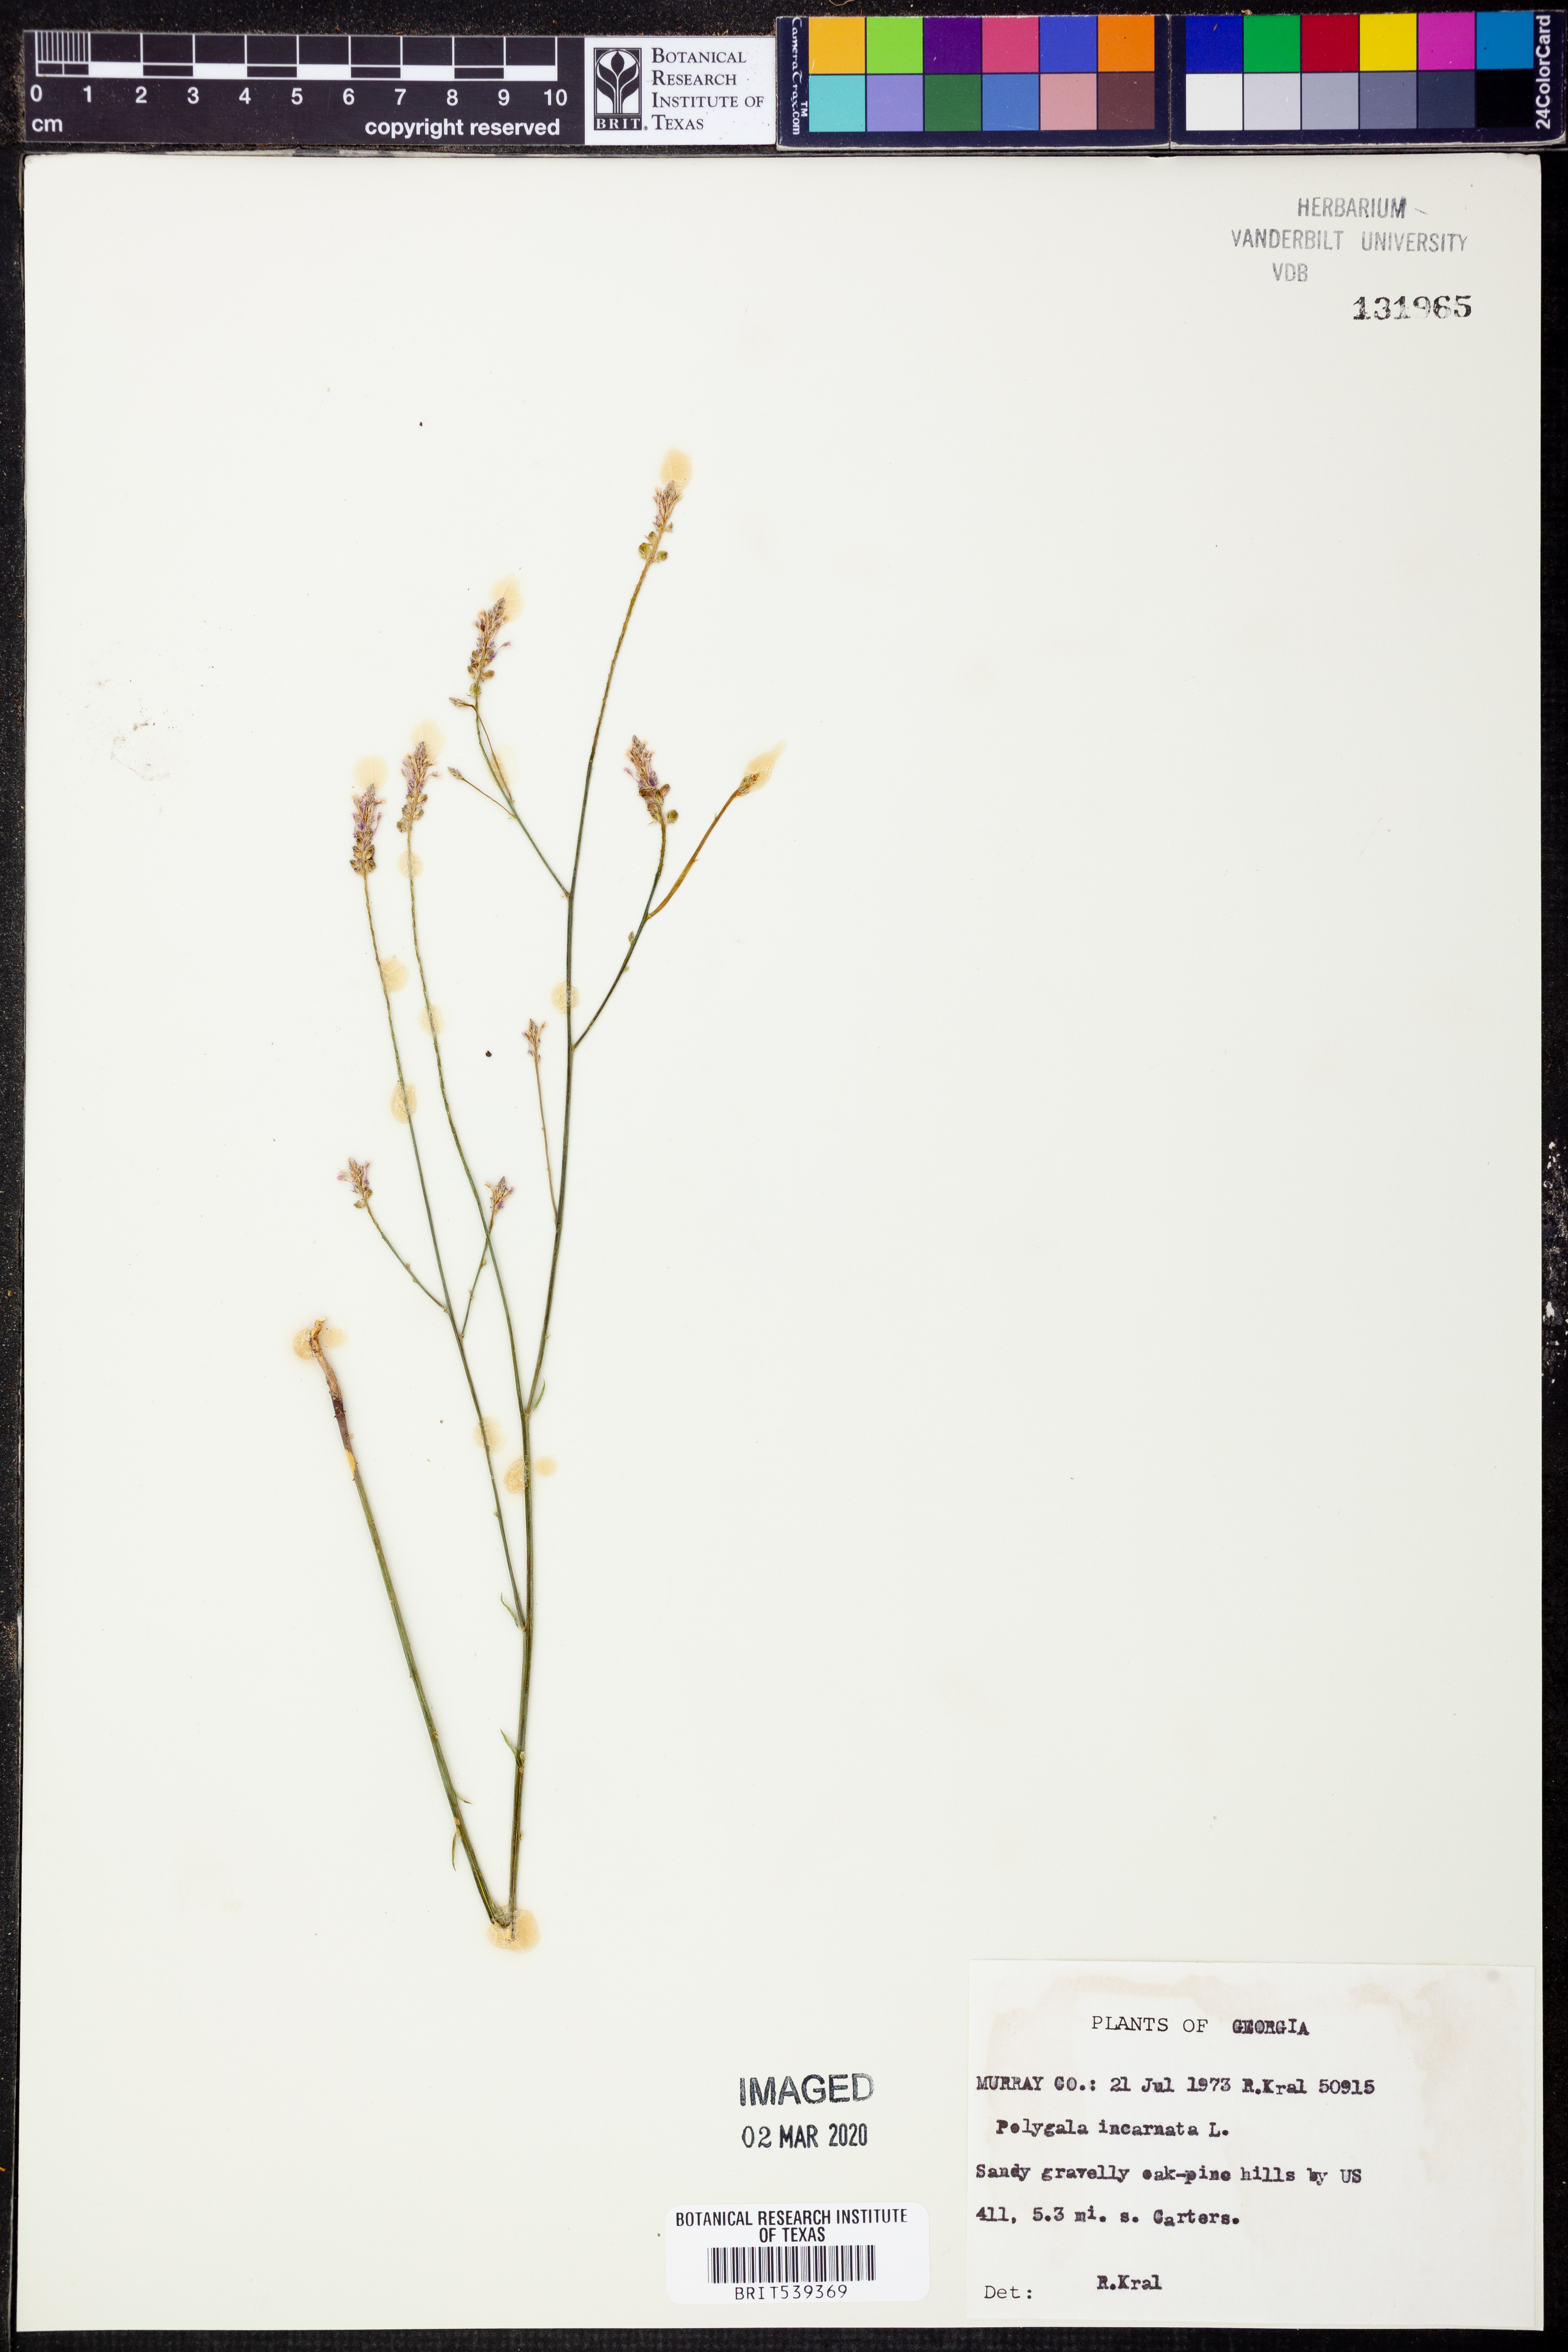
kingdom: Plantae
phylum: Tracheophyta
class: Magnoliopsida
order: Fabales
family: Polygalaceae
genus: Polygala
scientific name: Polygala incarnata
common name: Pink milkwort
